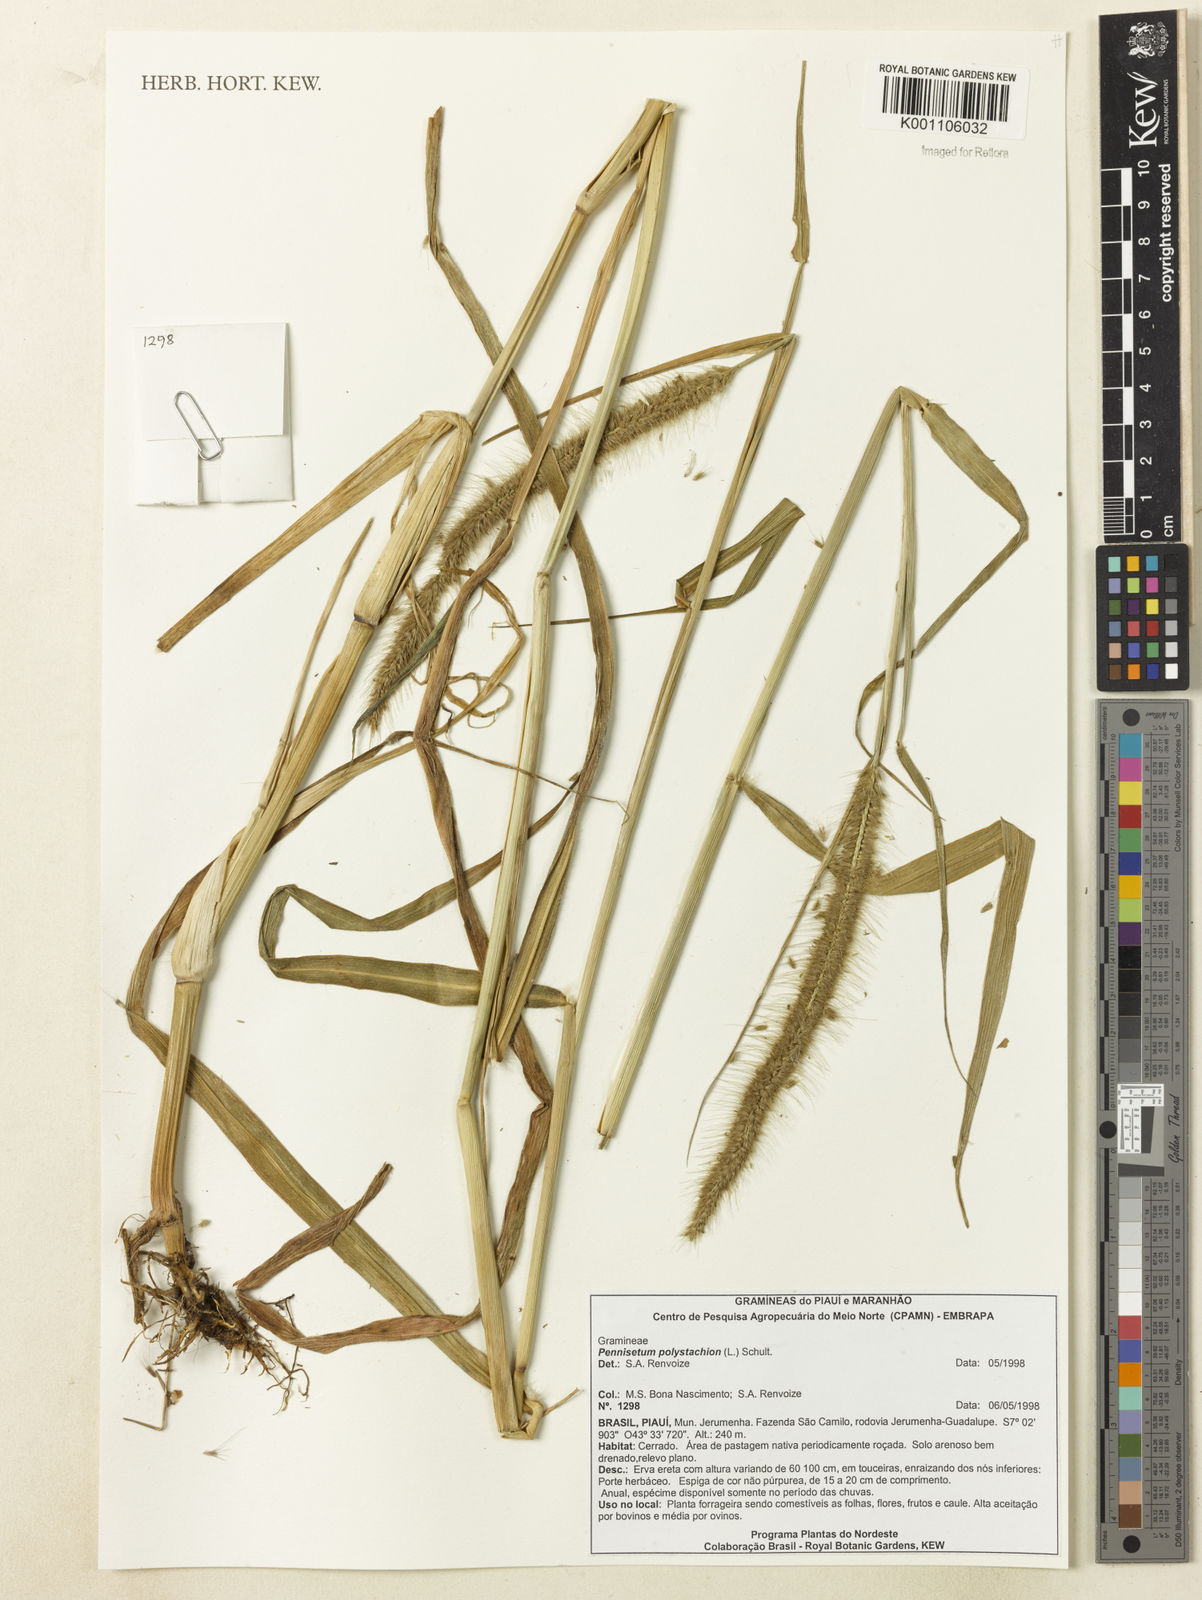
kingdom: Plantae
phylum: Tracheophyta
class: Liliopsida
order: Poales
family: Poaceae
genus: Setaria
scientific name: Setaria parviflora
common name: Knotroot bristle-grass
